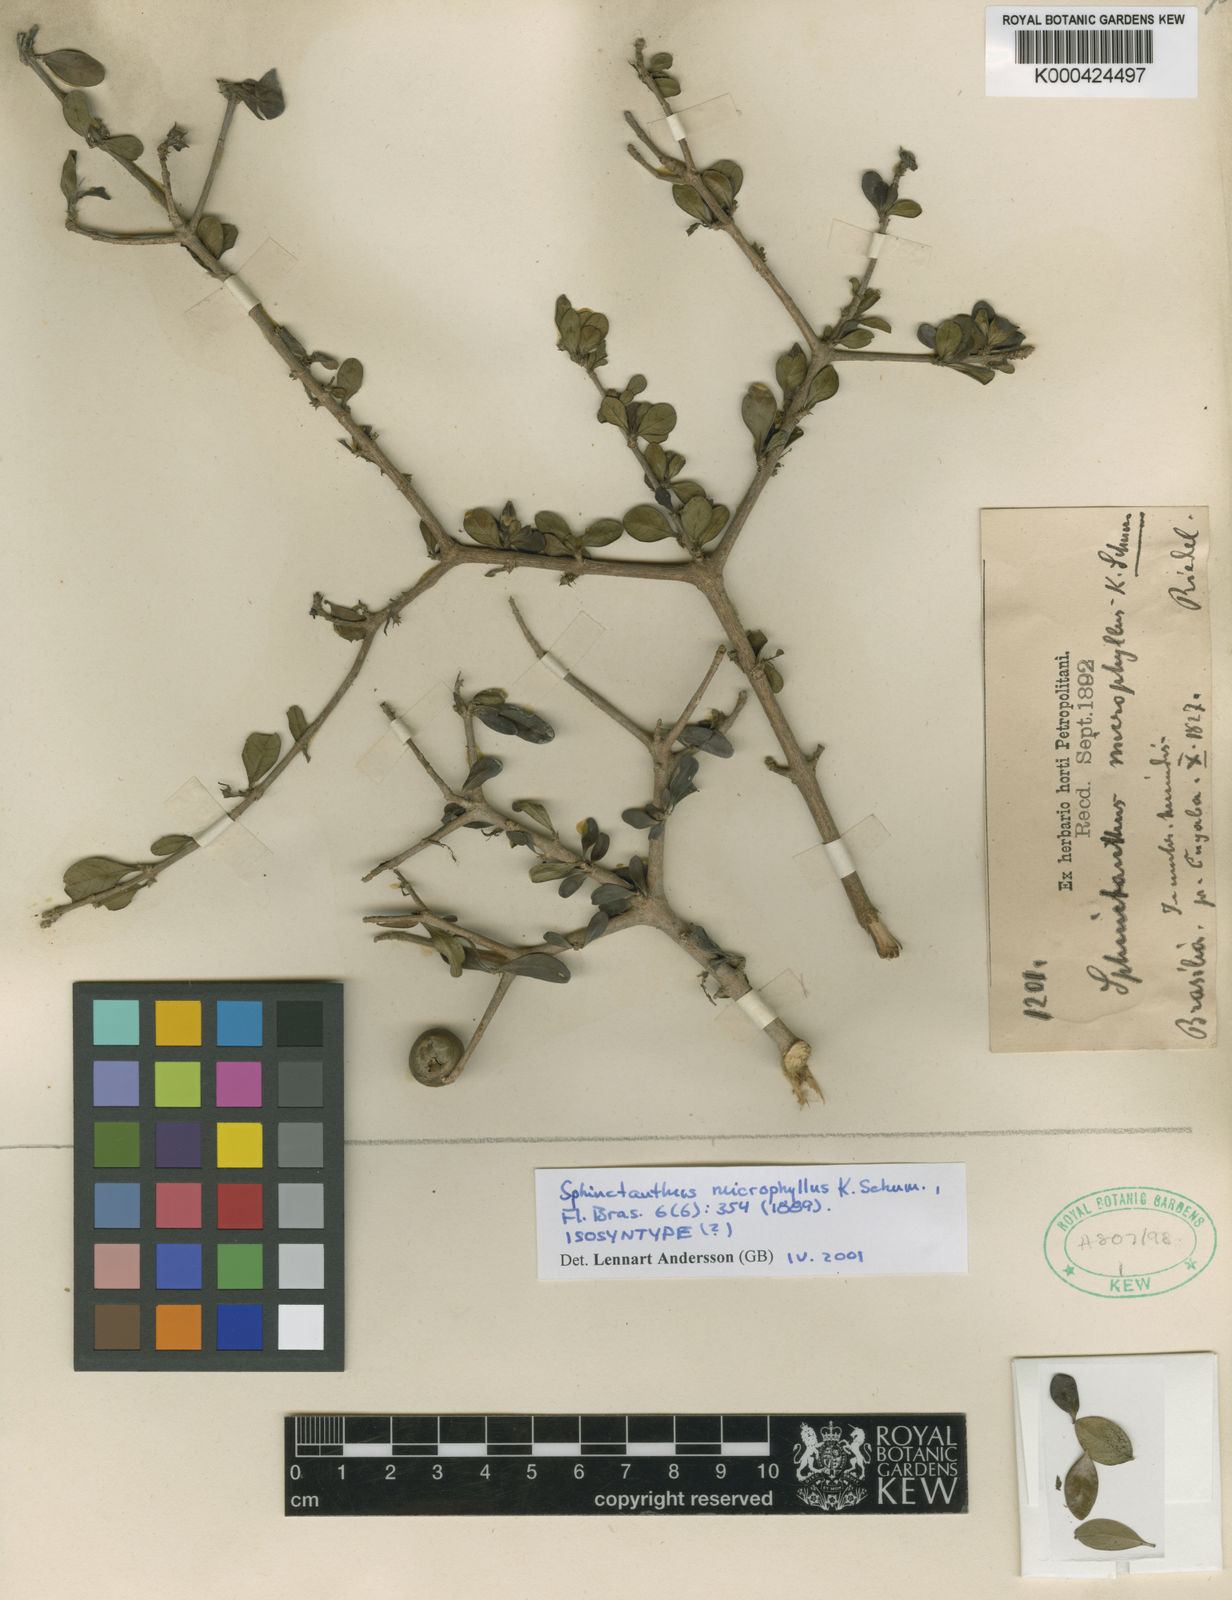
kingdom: Plantae
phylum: Tracheophyta
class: Magnoliopsida
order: Gentianales
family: Rubiaceae
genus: Sphinctanthus
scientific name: Sphinctanthus microphyllus
